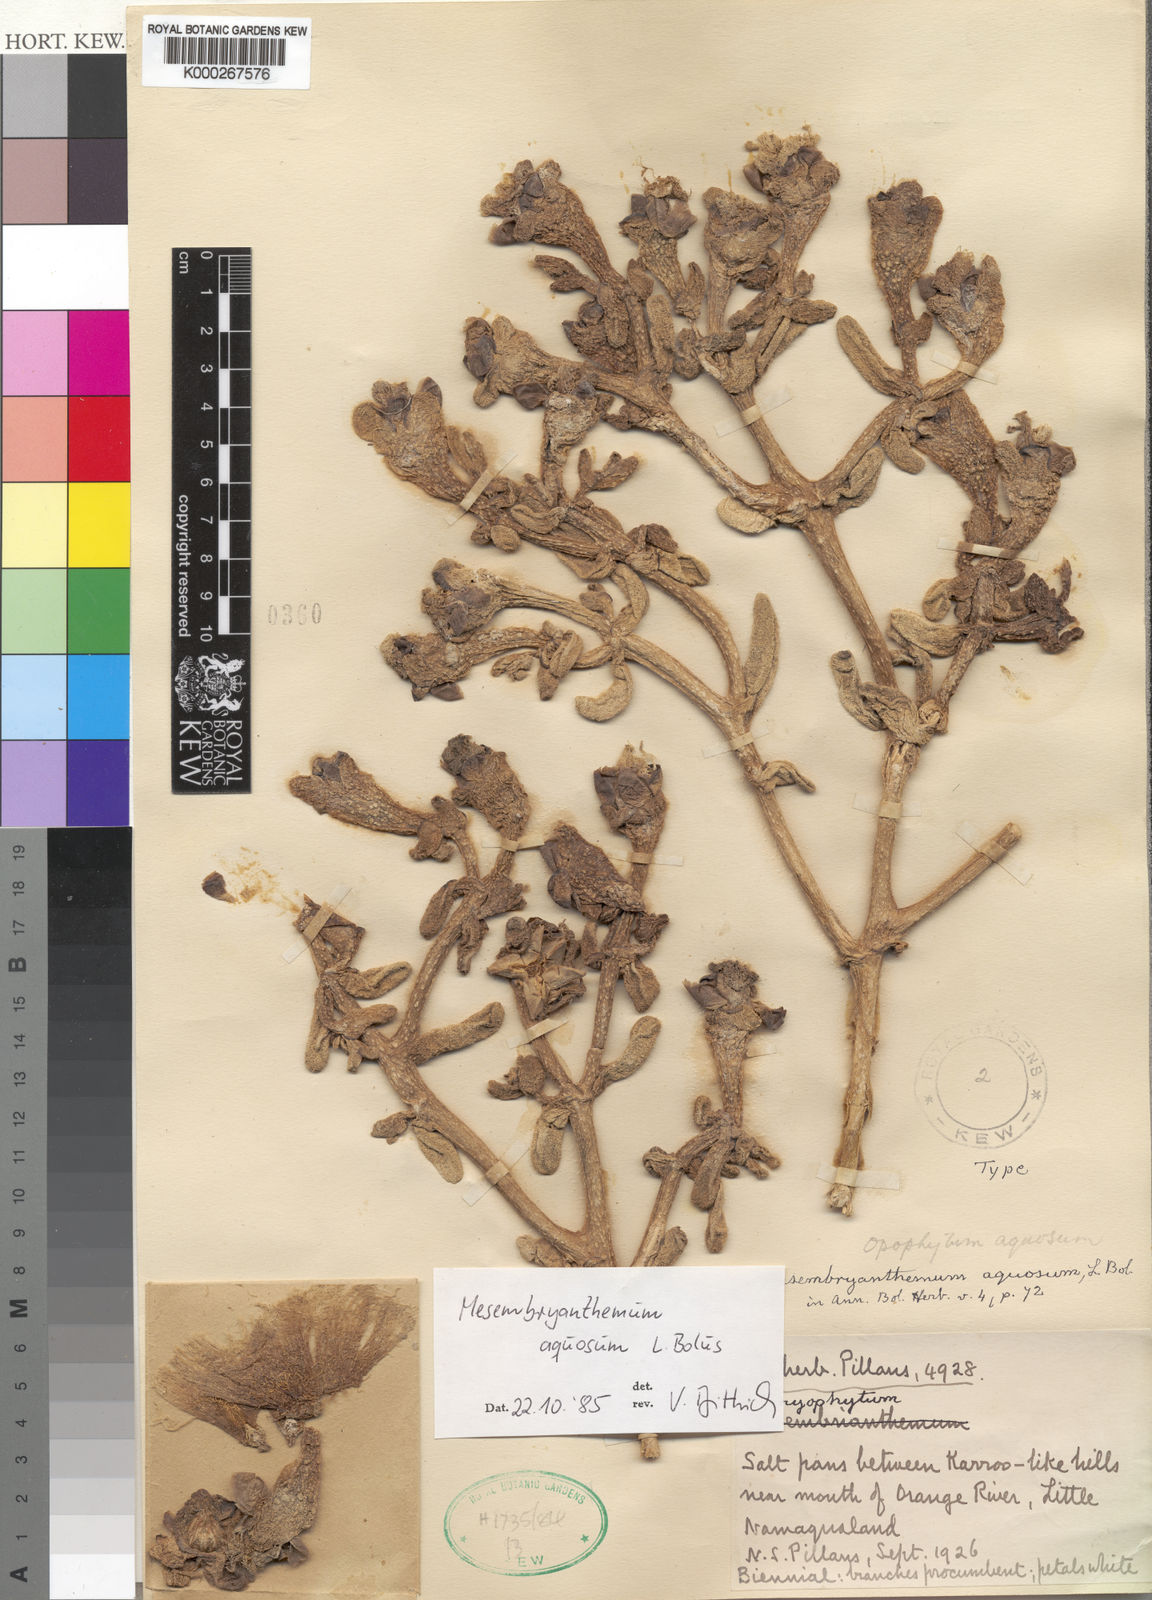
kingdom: Plantae
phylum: Tracheophyta
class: Magnoliopsida
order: Caryophyllales
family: Aizoaceae
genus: Mesembryanthemum
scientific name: Mesembryanthemum hypertrophicum
